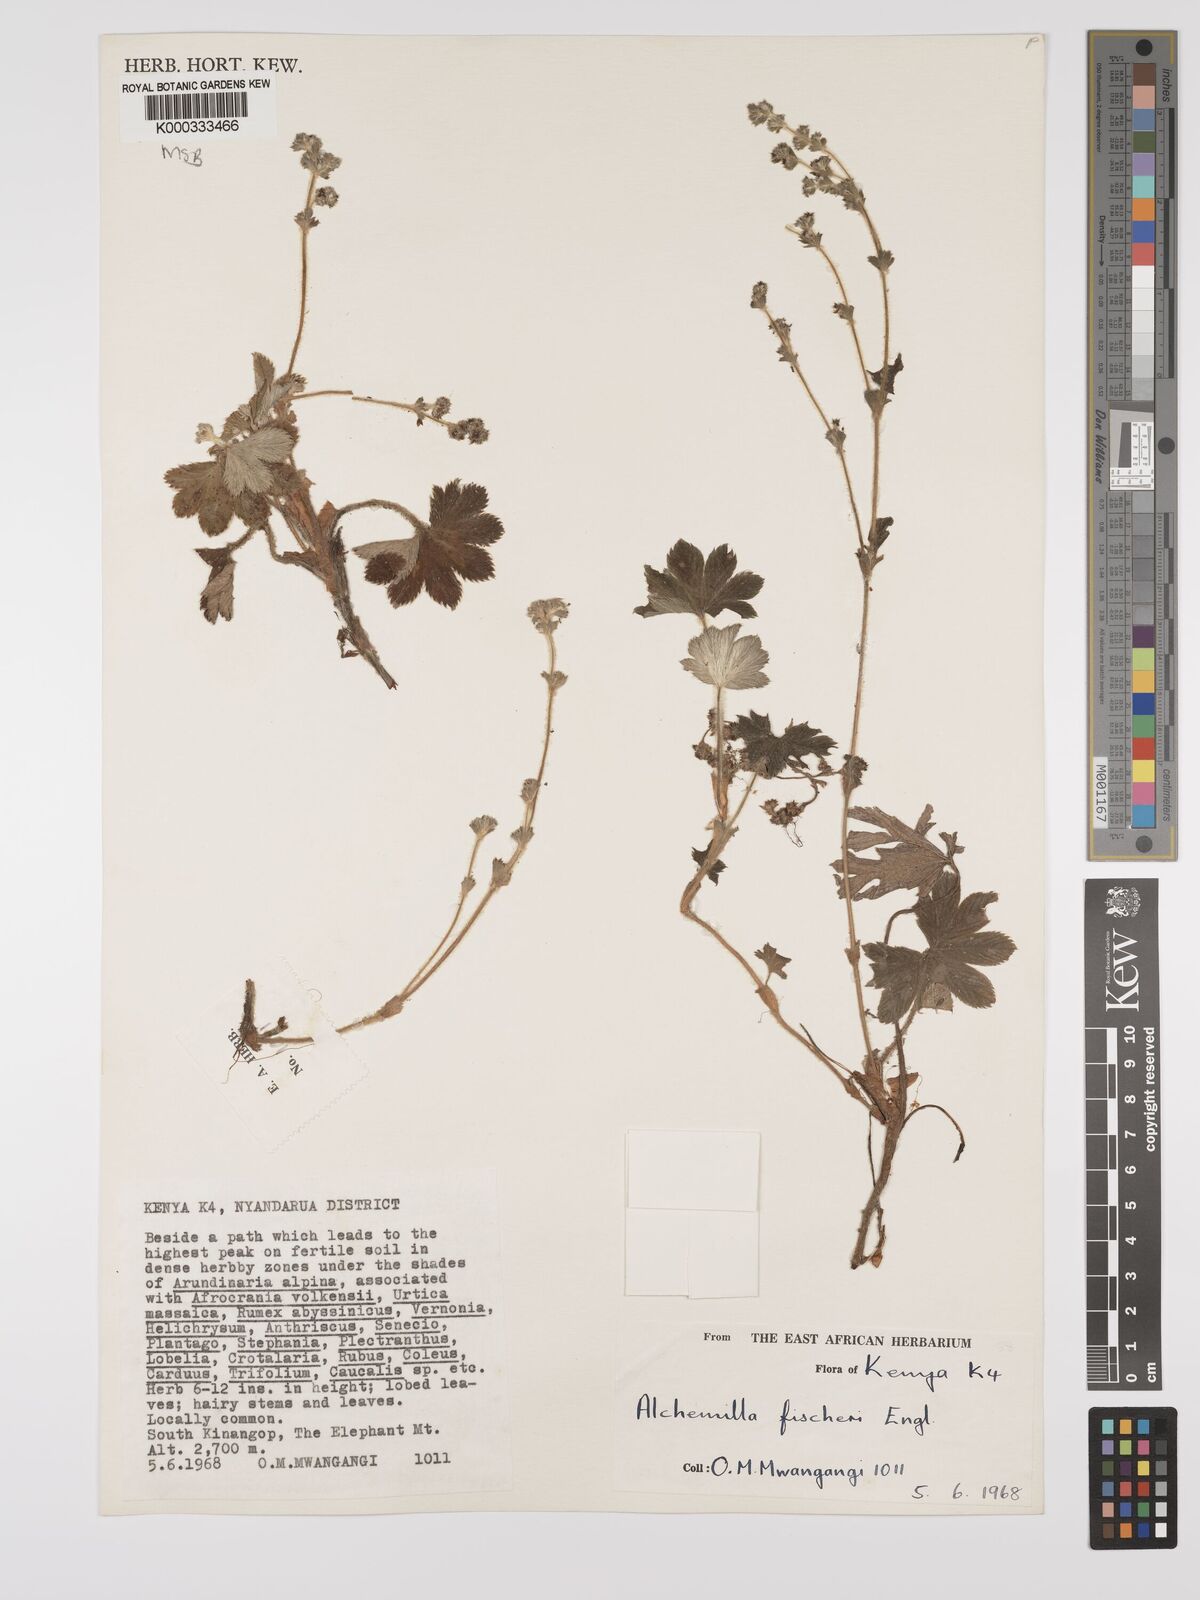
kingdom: Plantae
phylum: Tracheophyta
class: Magnoliopsida
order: Rosales
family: Rosaceae
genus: Alchemilla
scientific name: Alchemilla fischeri
